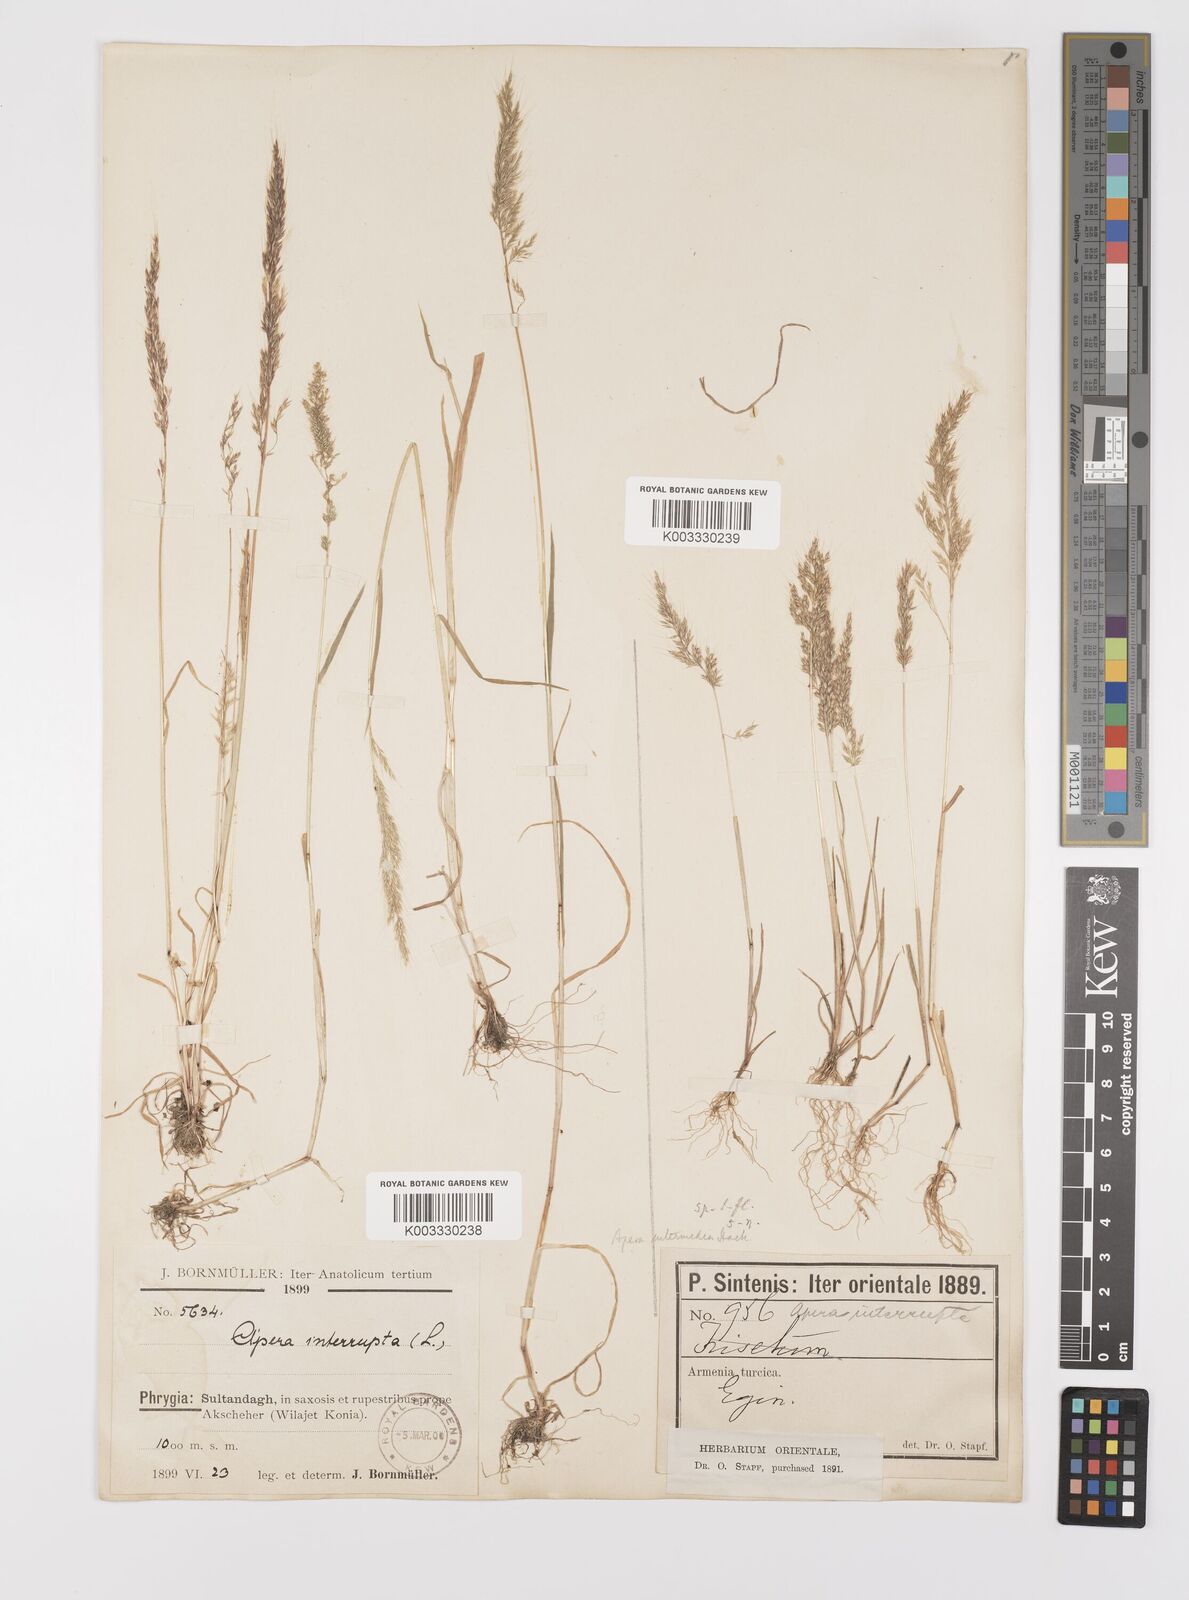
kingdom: Plantae
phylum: Tracheophyta
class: Liliopsida
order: Poales
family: Poaceae
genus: Apera
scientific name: Apera intermedia
